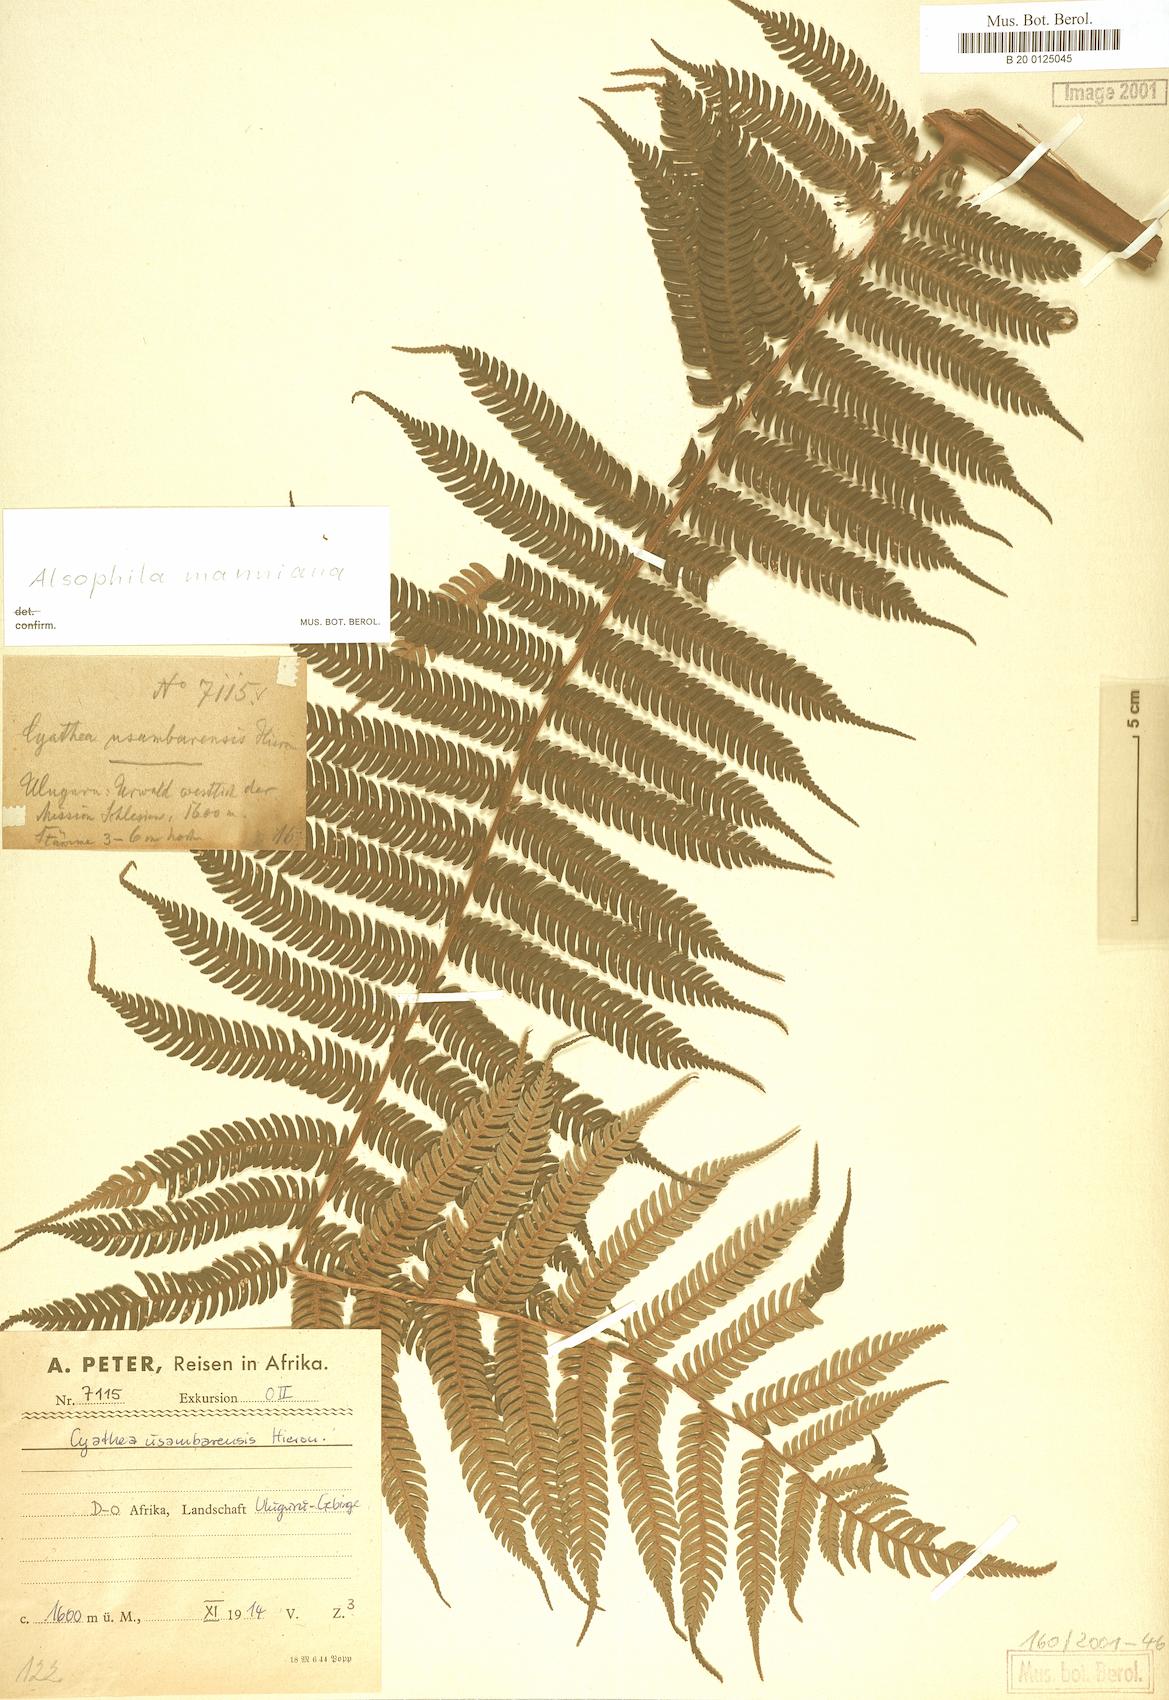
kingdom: Plantae
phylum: Tracheophyta
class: Polypodiopsida
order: Cyatheales
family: Cyatheaceae
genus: Alsophila
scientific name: Alsophila manniana
